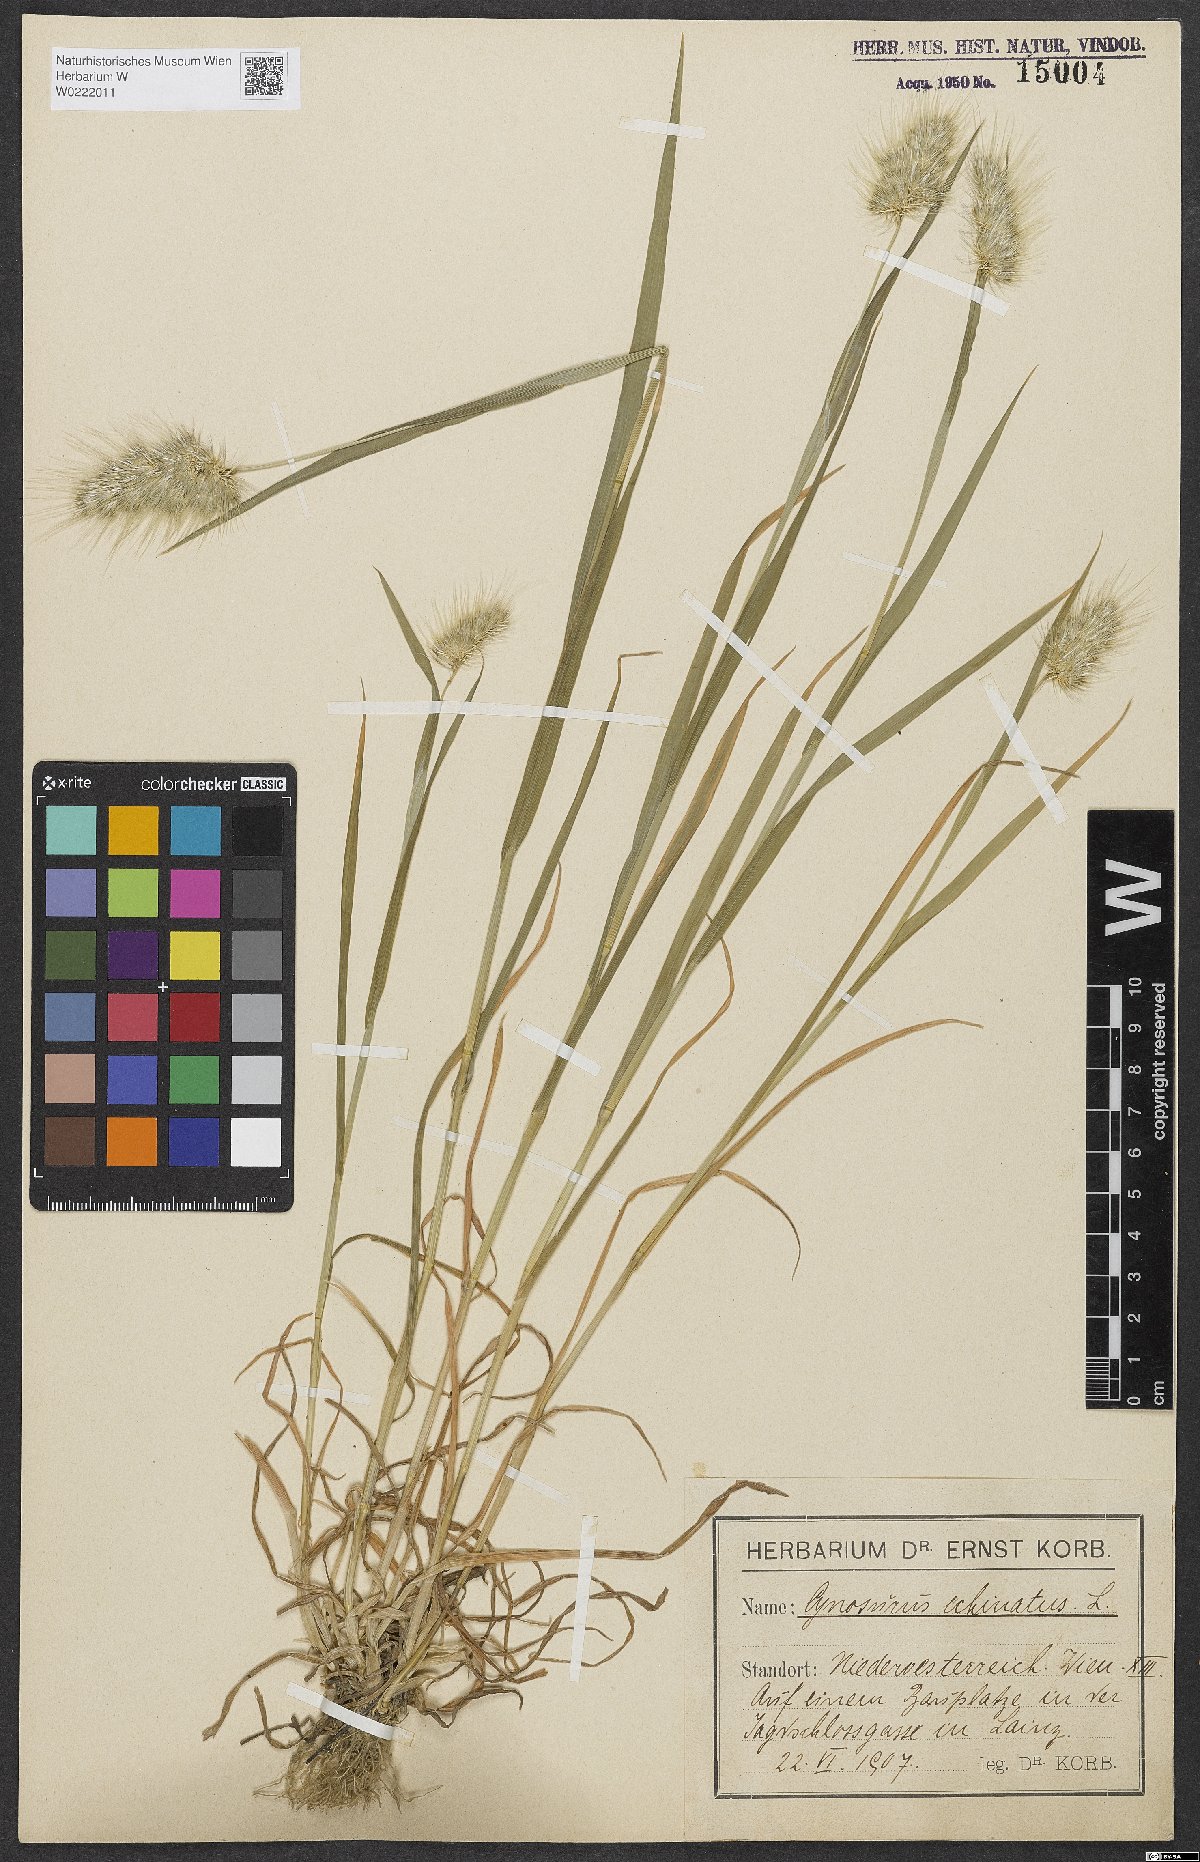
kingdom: Plantae
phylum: Tracheophyta
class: Liliopsida
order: Poales
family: Poaceae
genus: Cynosurus
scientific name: Cynosurus echinatus
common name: Rough dog's-tail
